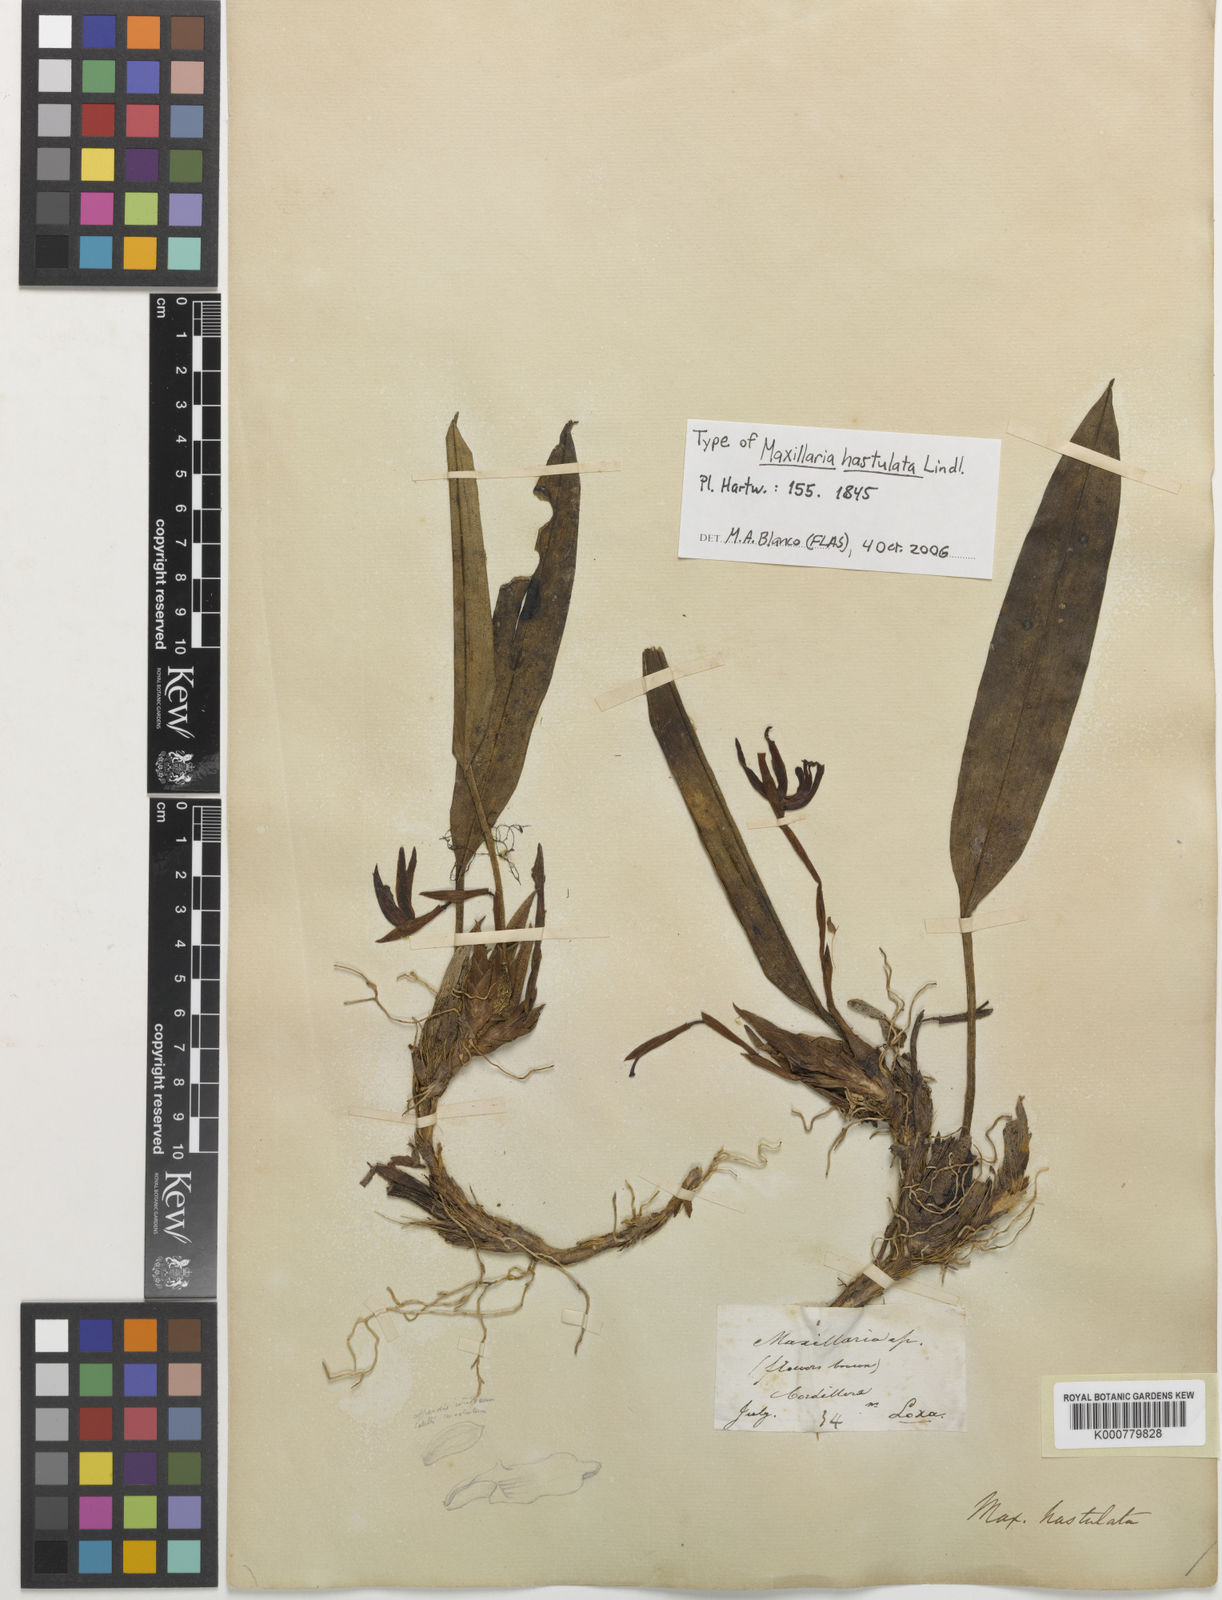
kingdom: Plantae
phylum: Tracheophyta
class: Liliopsida
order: Asparagales
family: Orchidaceae
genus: Maxillaria
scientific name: Maxillaria hastulata
